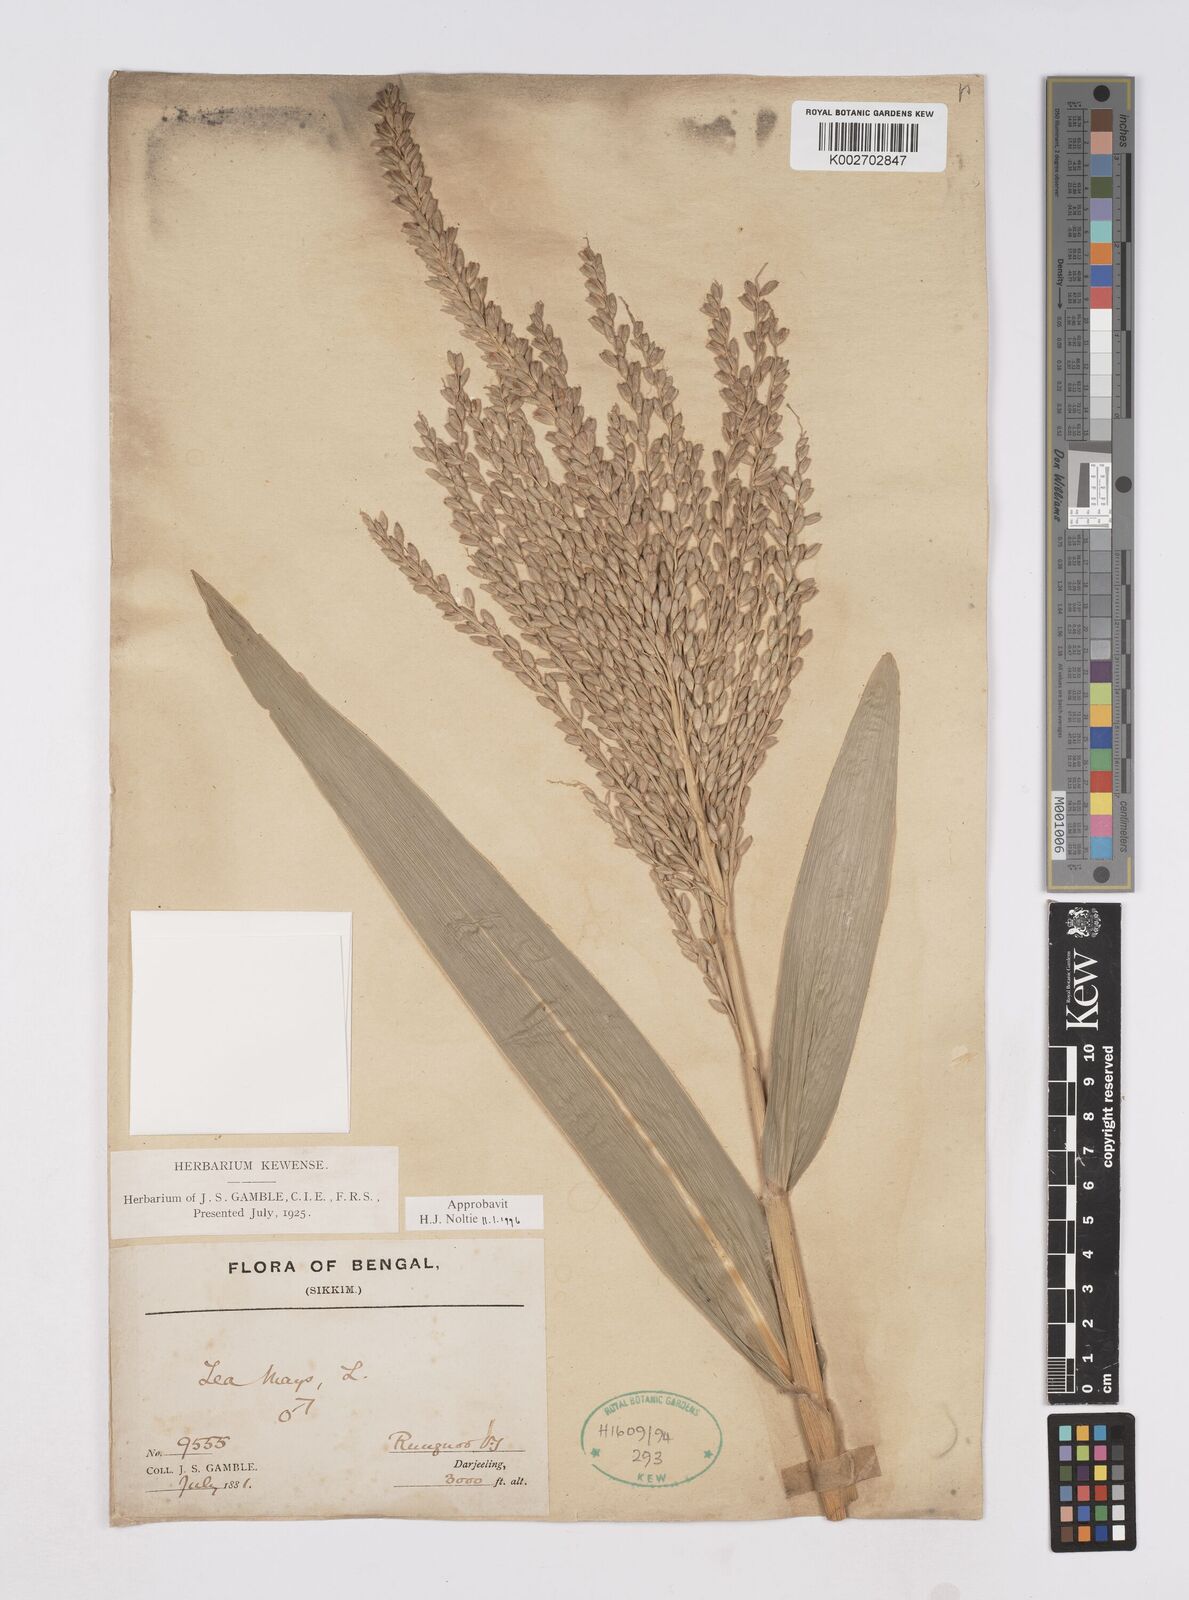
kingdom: Plantae
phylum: Tracheophyta
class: Liliopsida
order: Poales
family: Poaceae
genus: Zea
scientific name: Zea mays
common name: Maize
